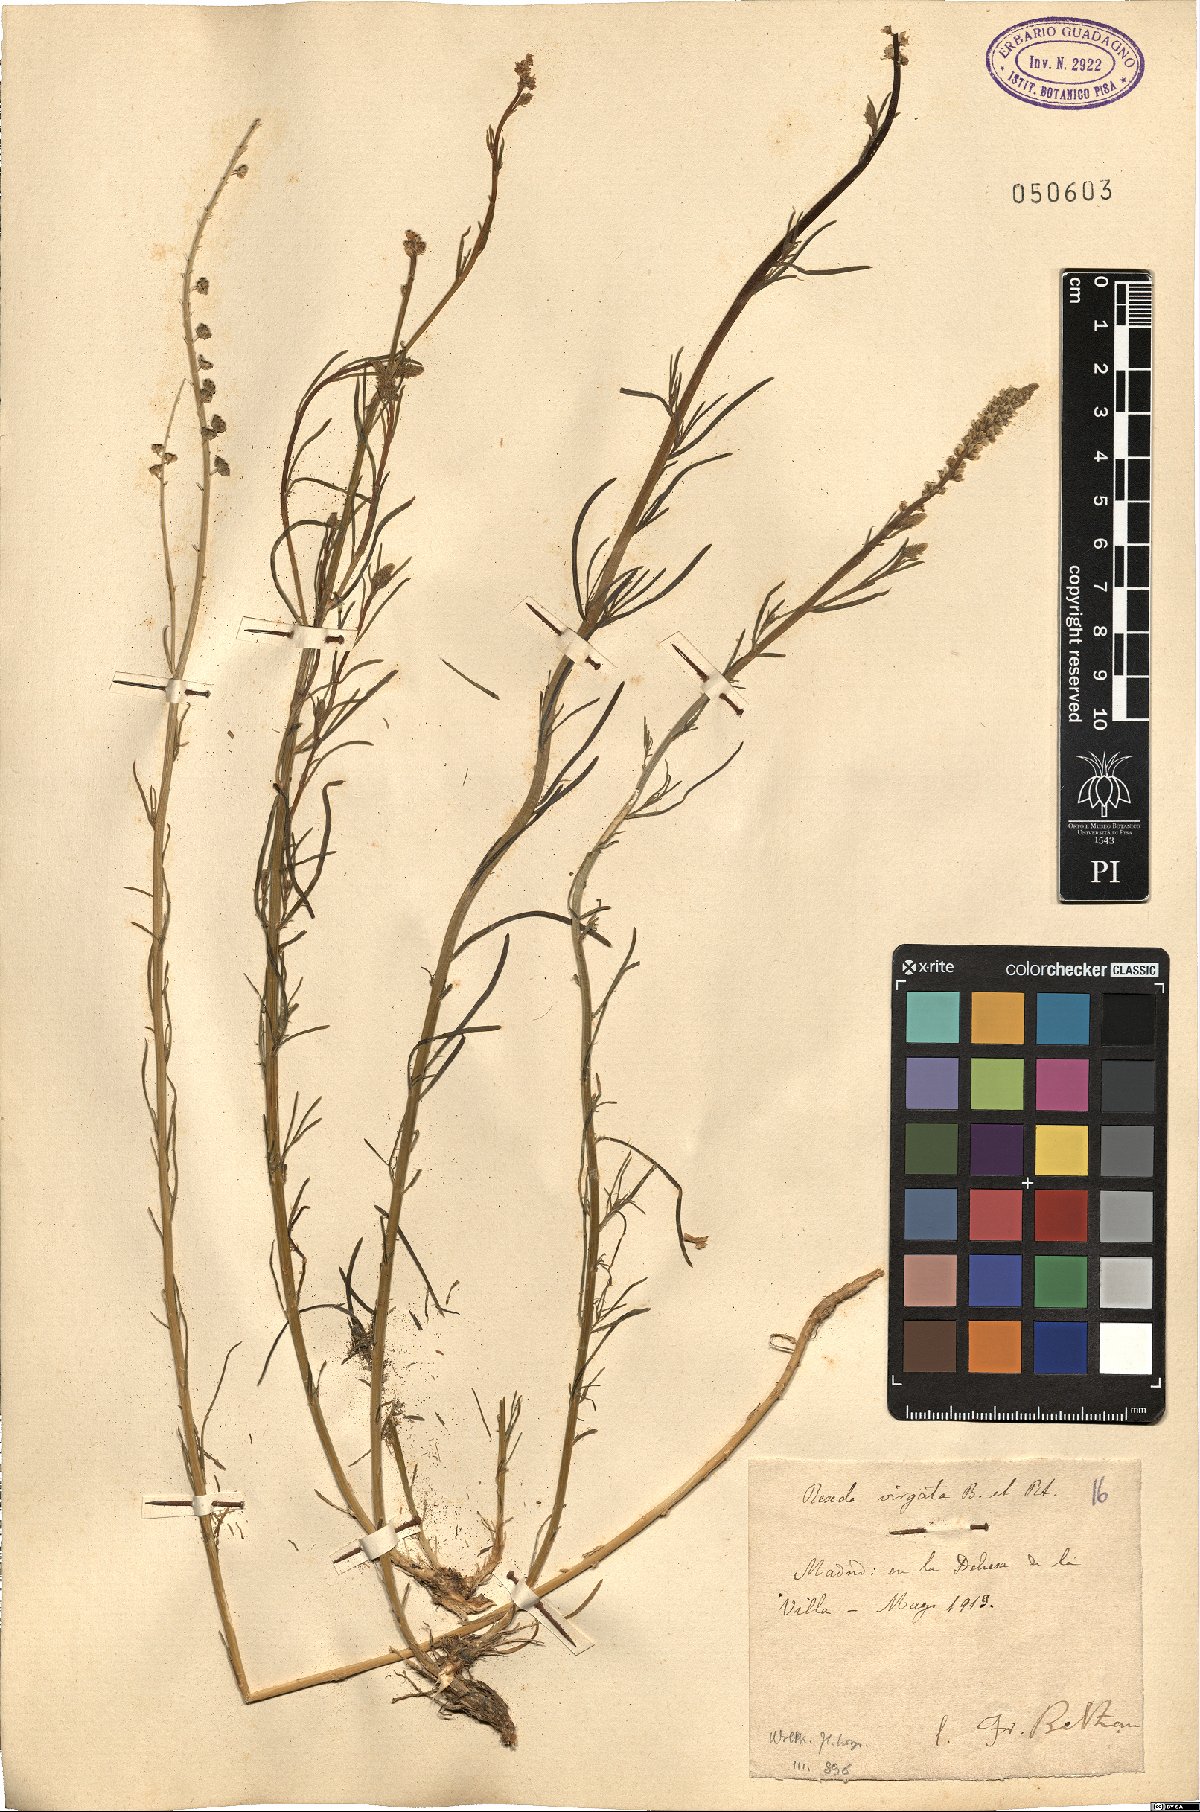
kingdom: Plantae
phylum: Tracheophyta
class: Magnoliopsida
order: Brassicales
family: Resedaceae
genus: Reseda
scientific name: Reseda virgata
